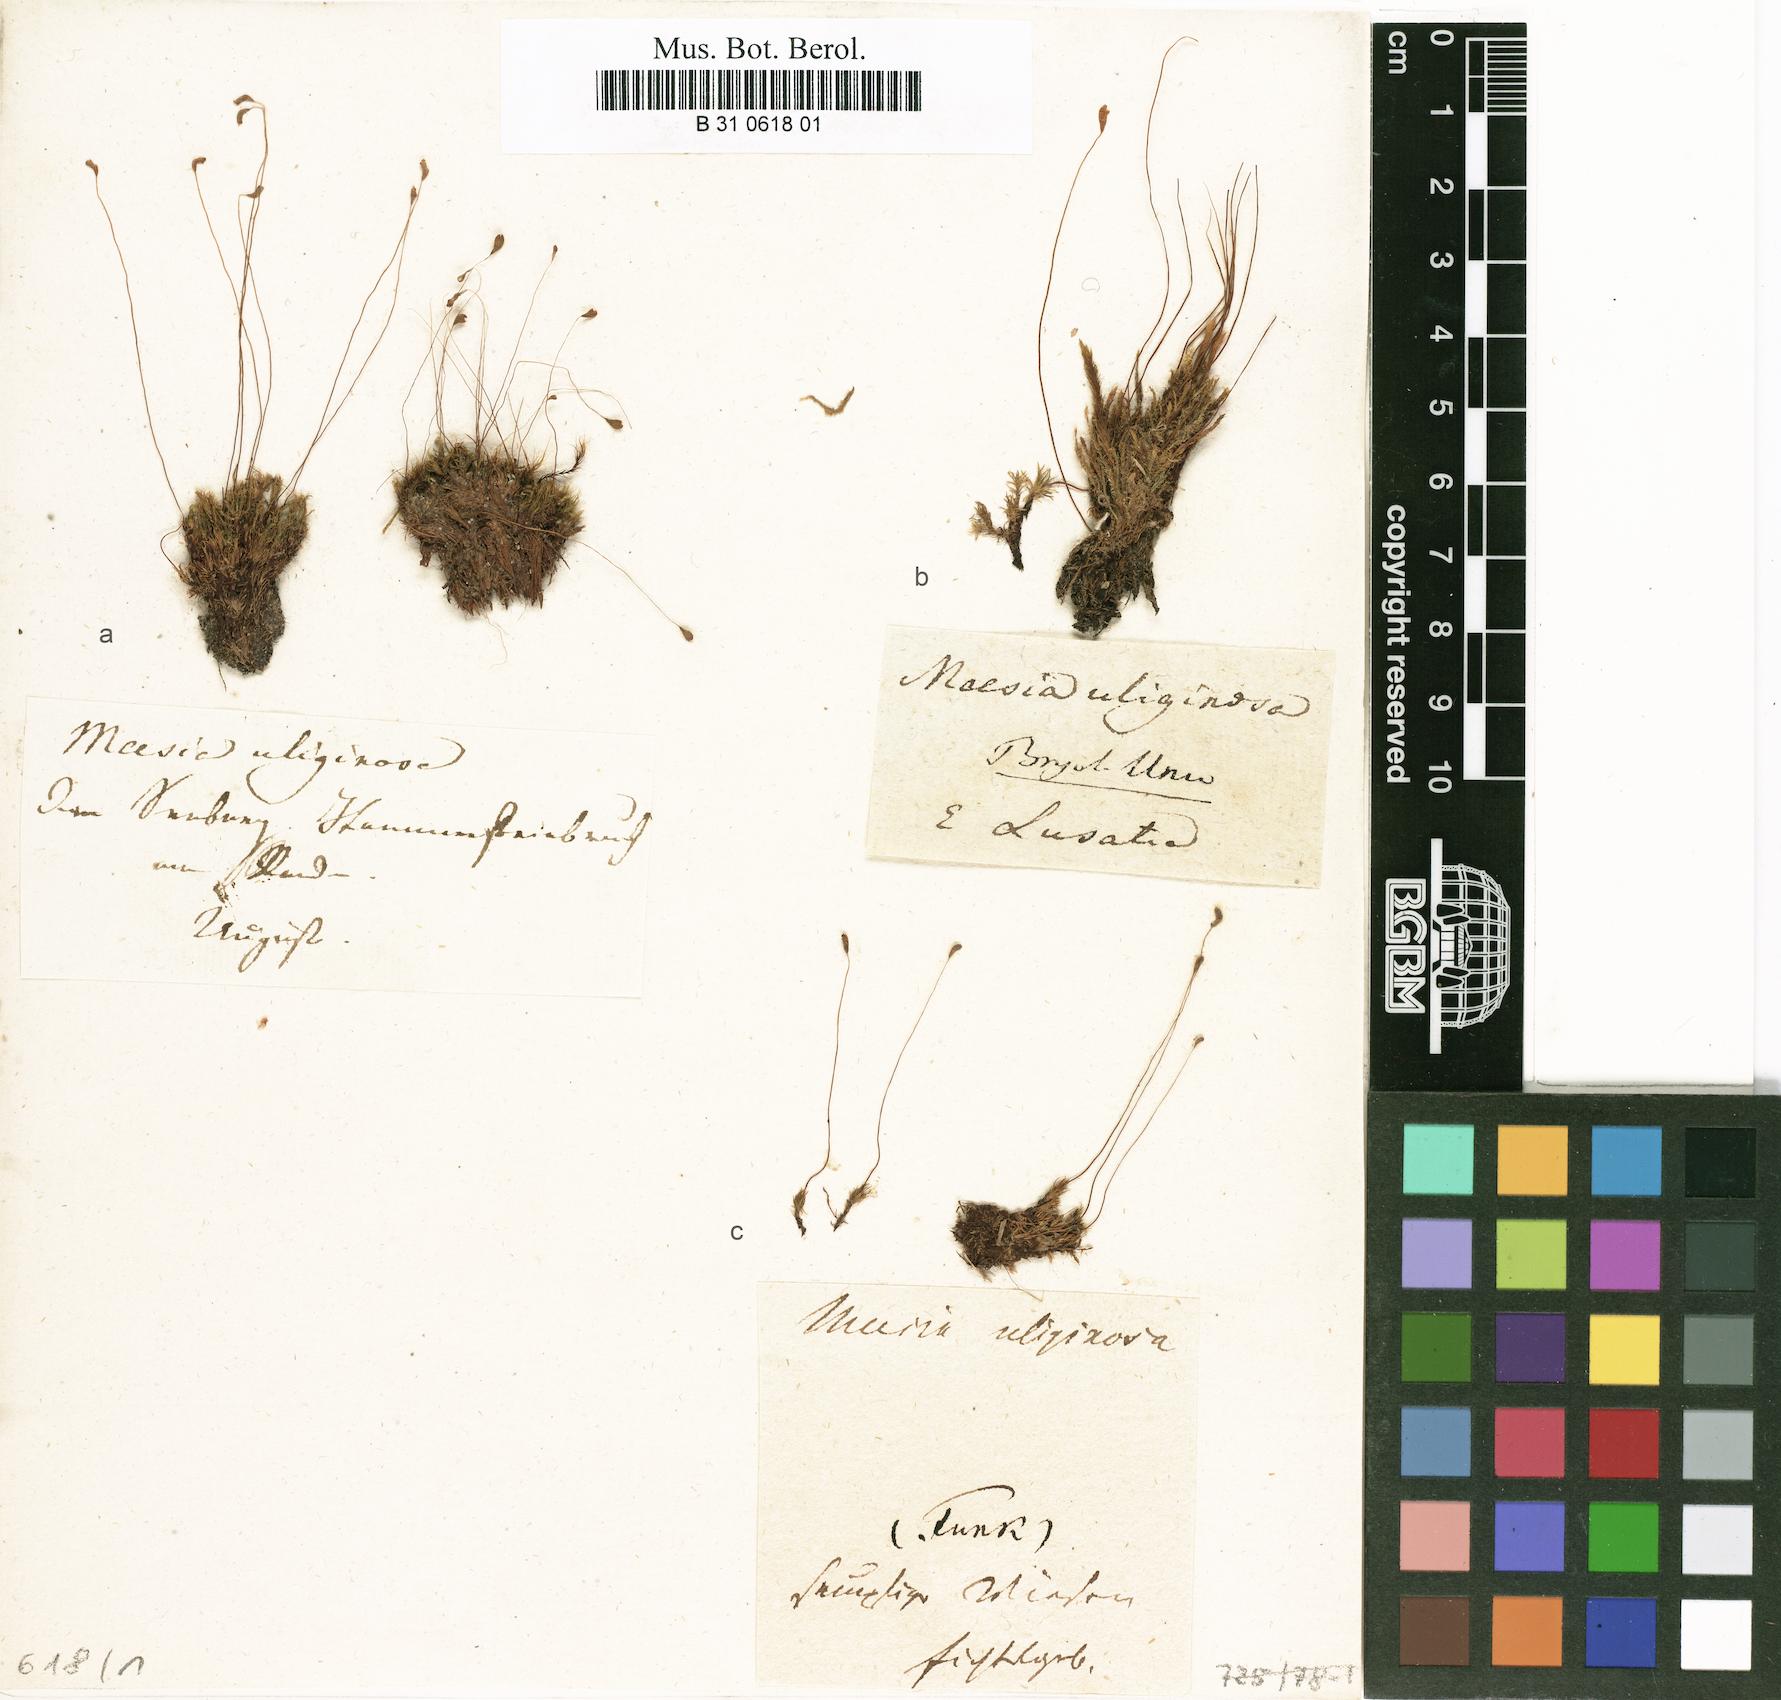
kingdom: Plantae
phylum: Bryophyta
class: Bryopsida
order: Splachnales
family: Meesiaceae
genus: Meesia
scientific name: Meesia uliginosa
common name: Capillary thread moss
